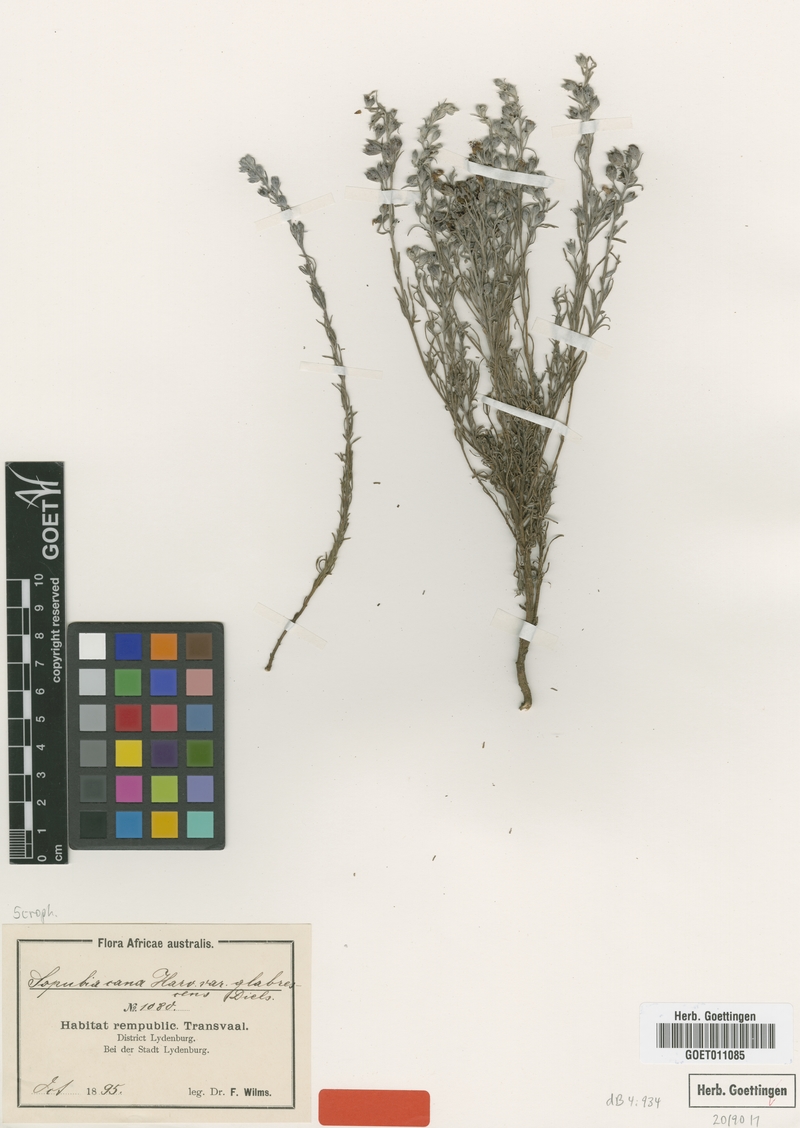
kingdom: Plantae
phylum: Tracheophyta
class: Magnoliopsida
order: Lamiales
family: Orobanchaceae
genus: Sopubia
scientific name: Sopubia cana
